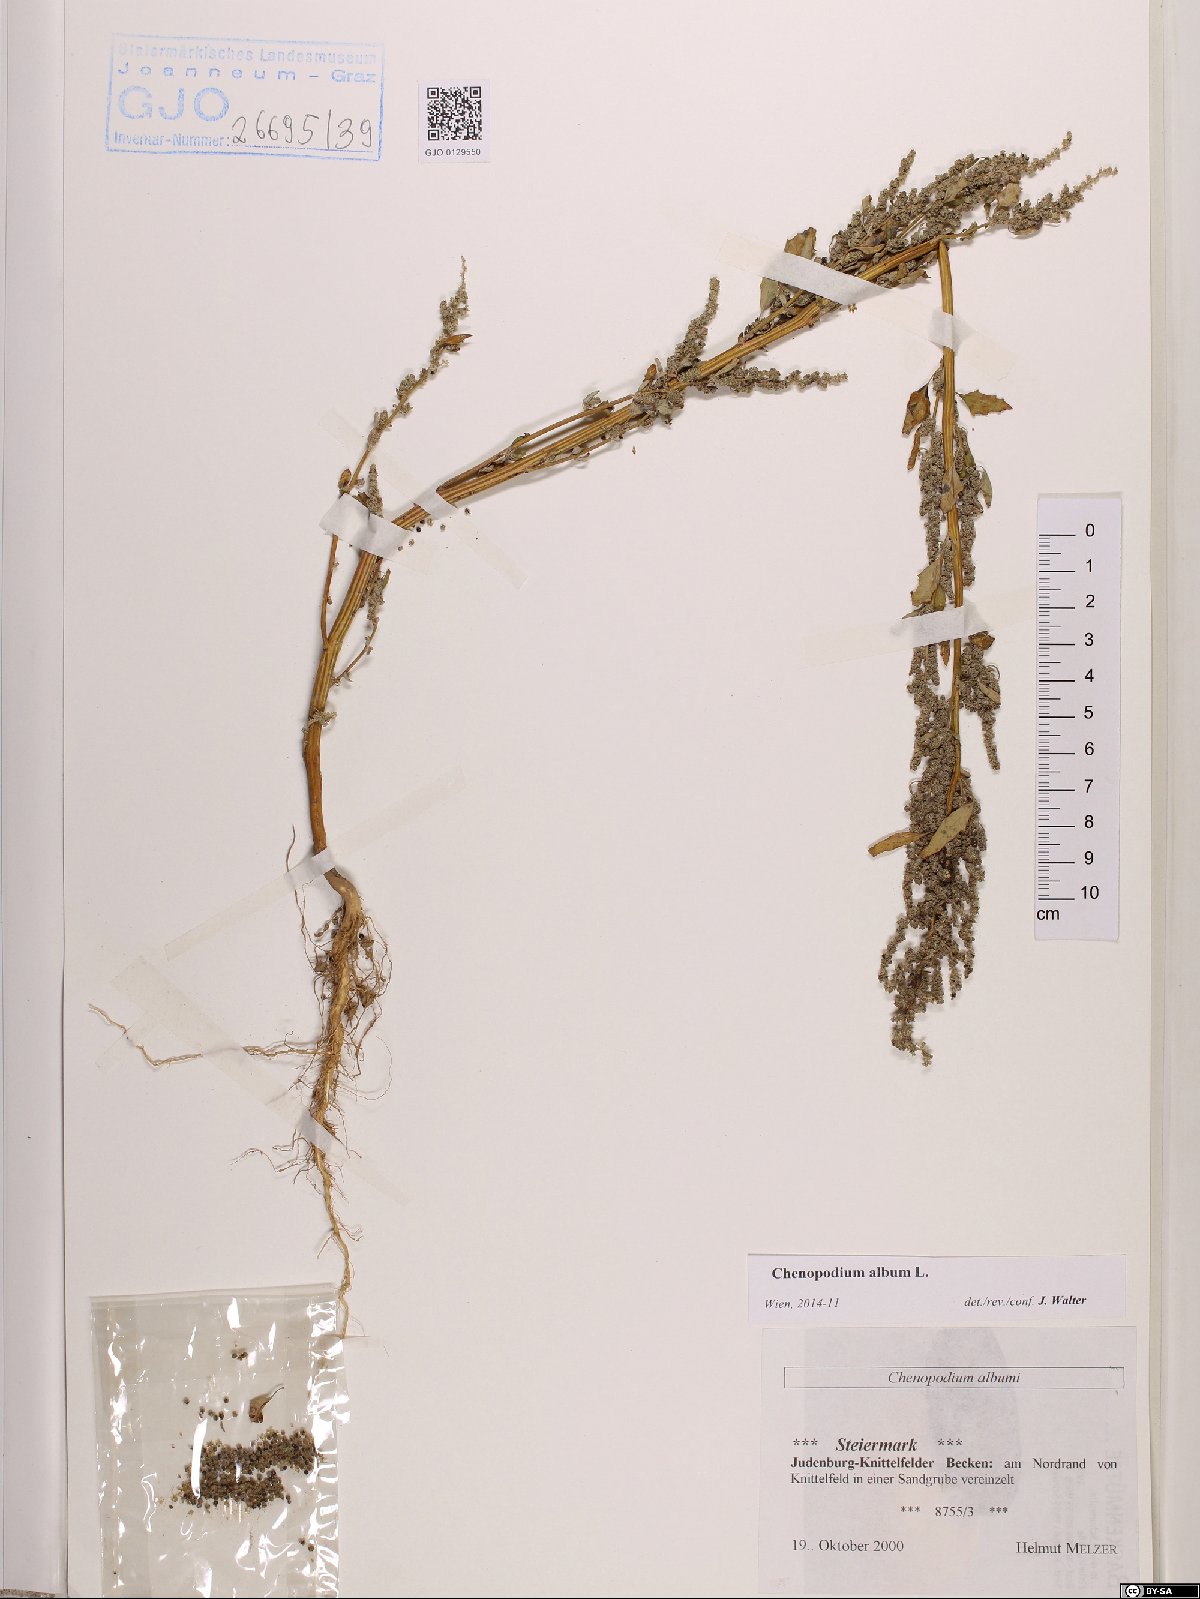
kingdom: Plantae
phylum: Tracheophyta
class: Magnoliopsida
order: Caryophyllales
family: Amaranthaceae
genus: Chenopodium
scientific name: Chenopodium album
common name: Fat-hen
